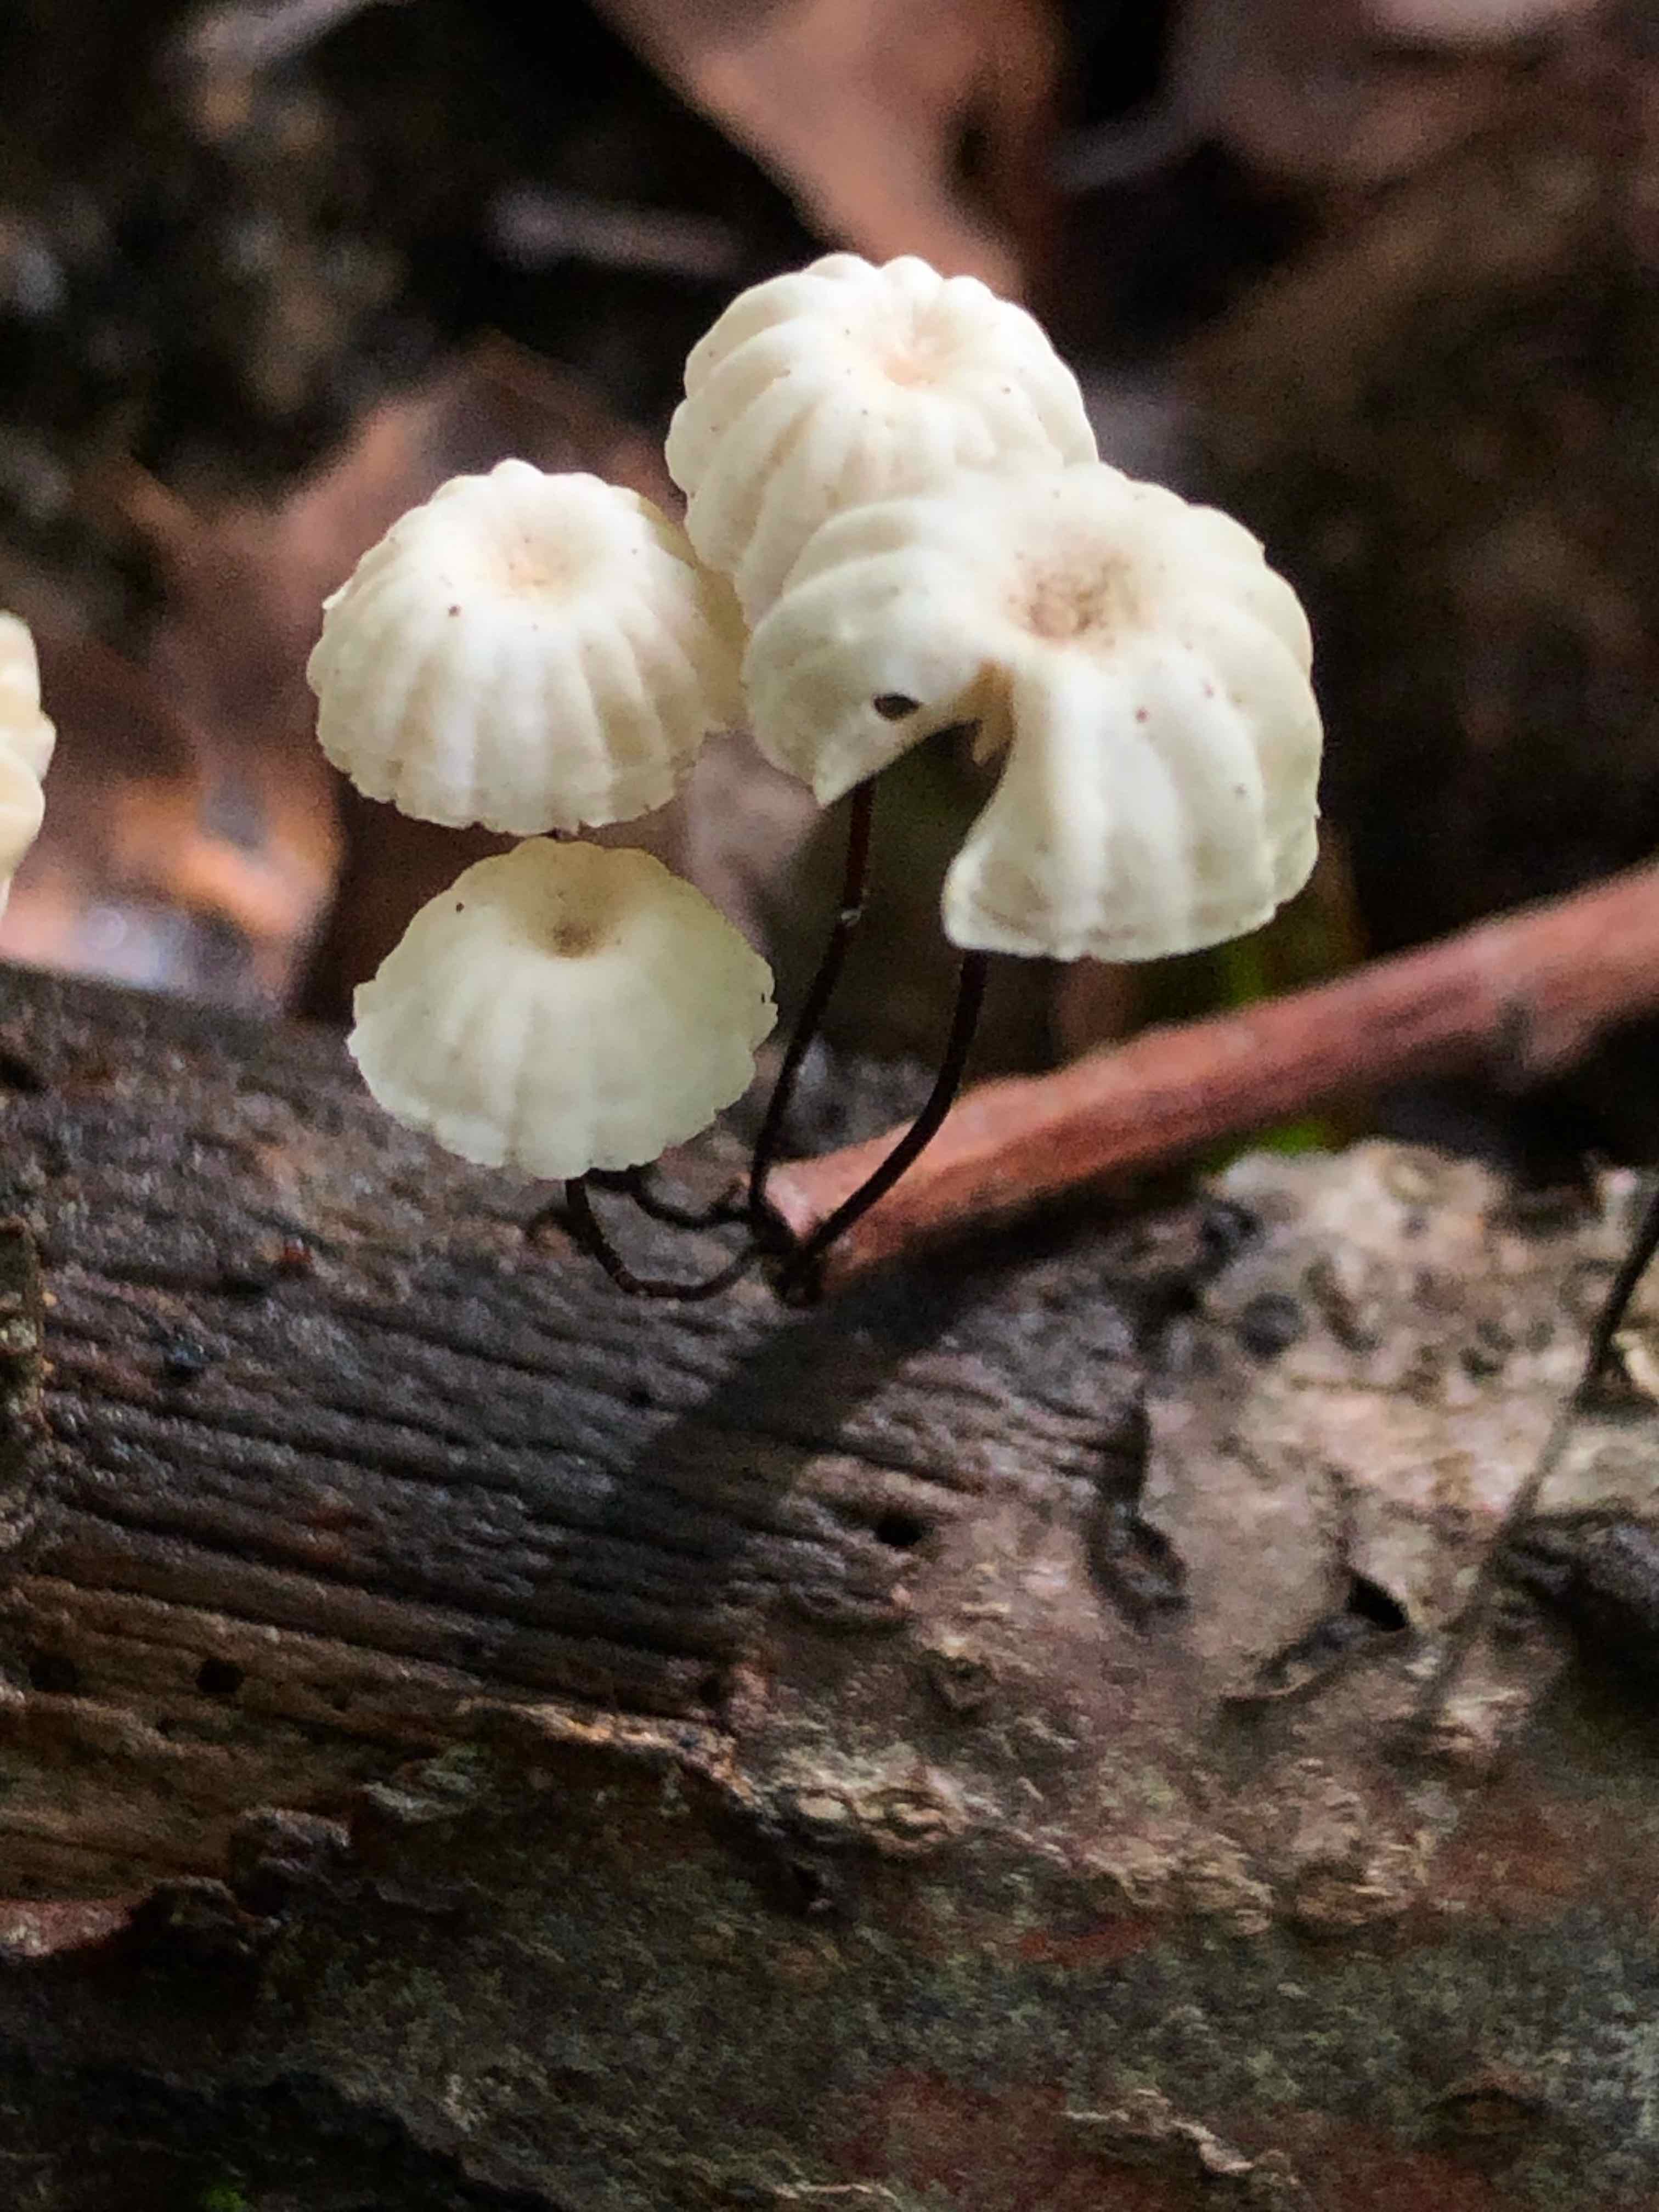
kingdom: Fungi
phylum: Basidiomycota
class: Agaricomycetes
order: Agaricales
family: Marasmiaceae
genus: Marasmius
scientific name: Marasmius rotula
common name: hjul-bruskhat
